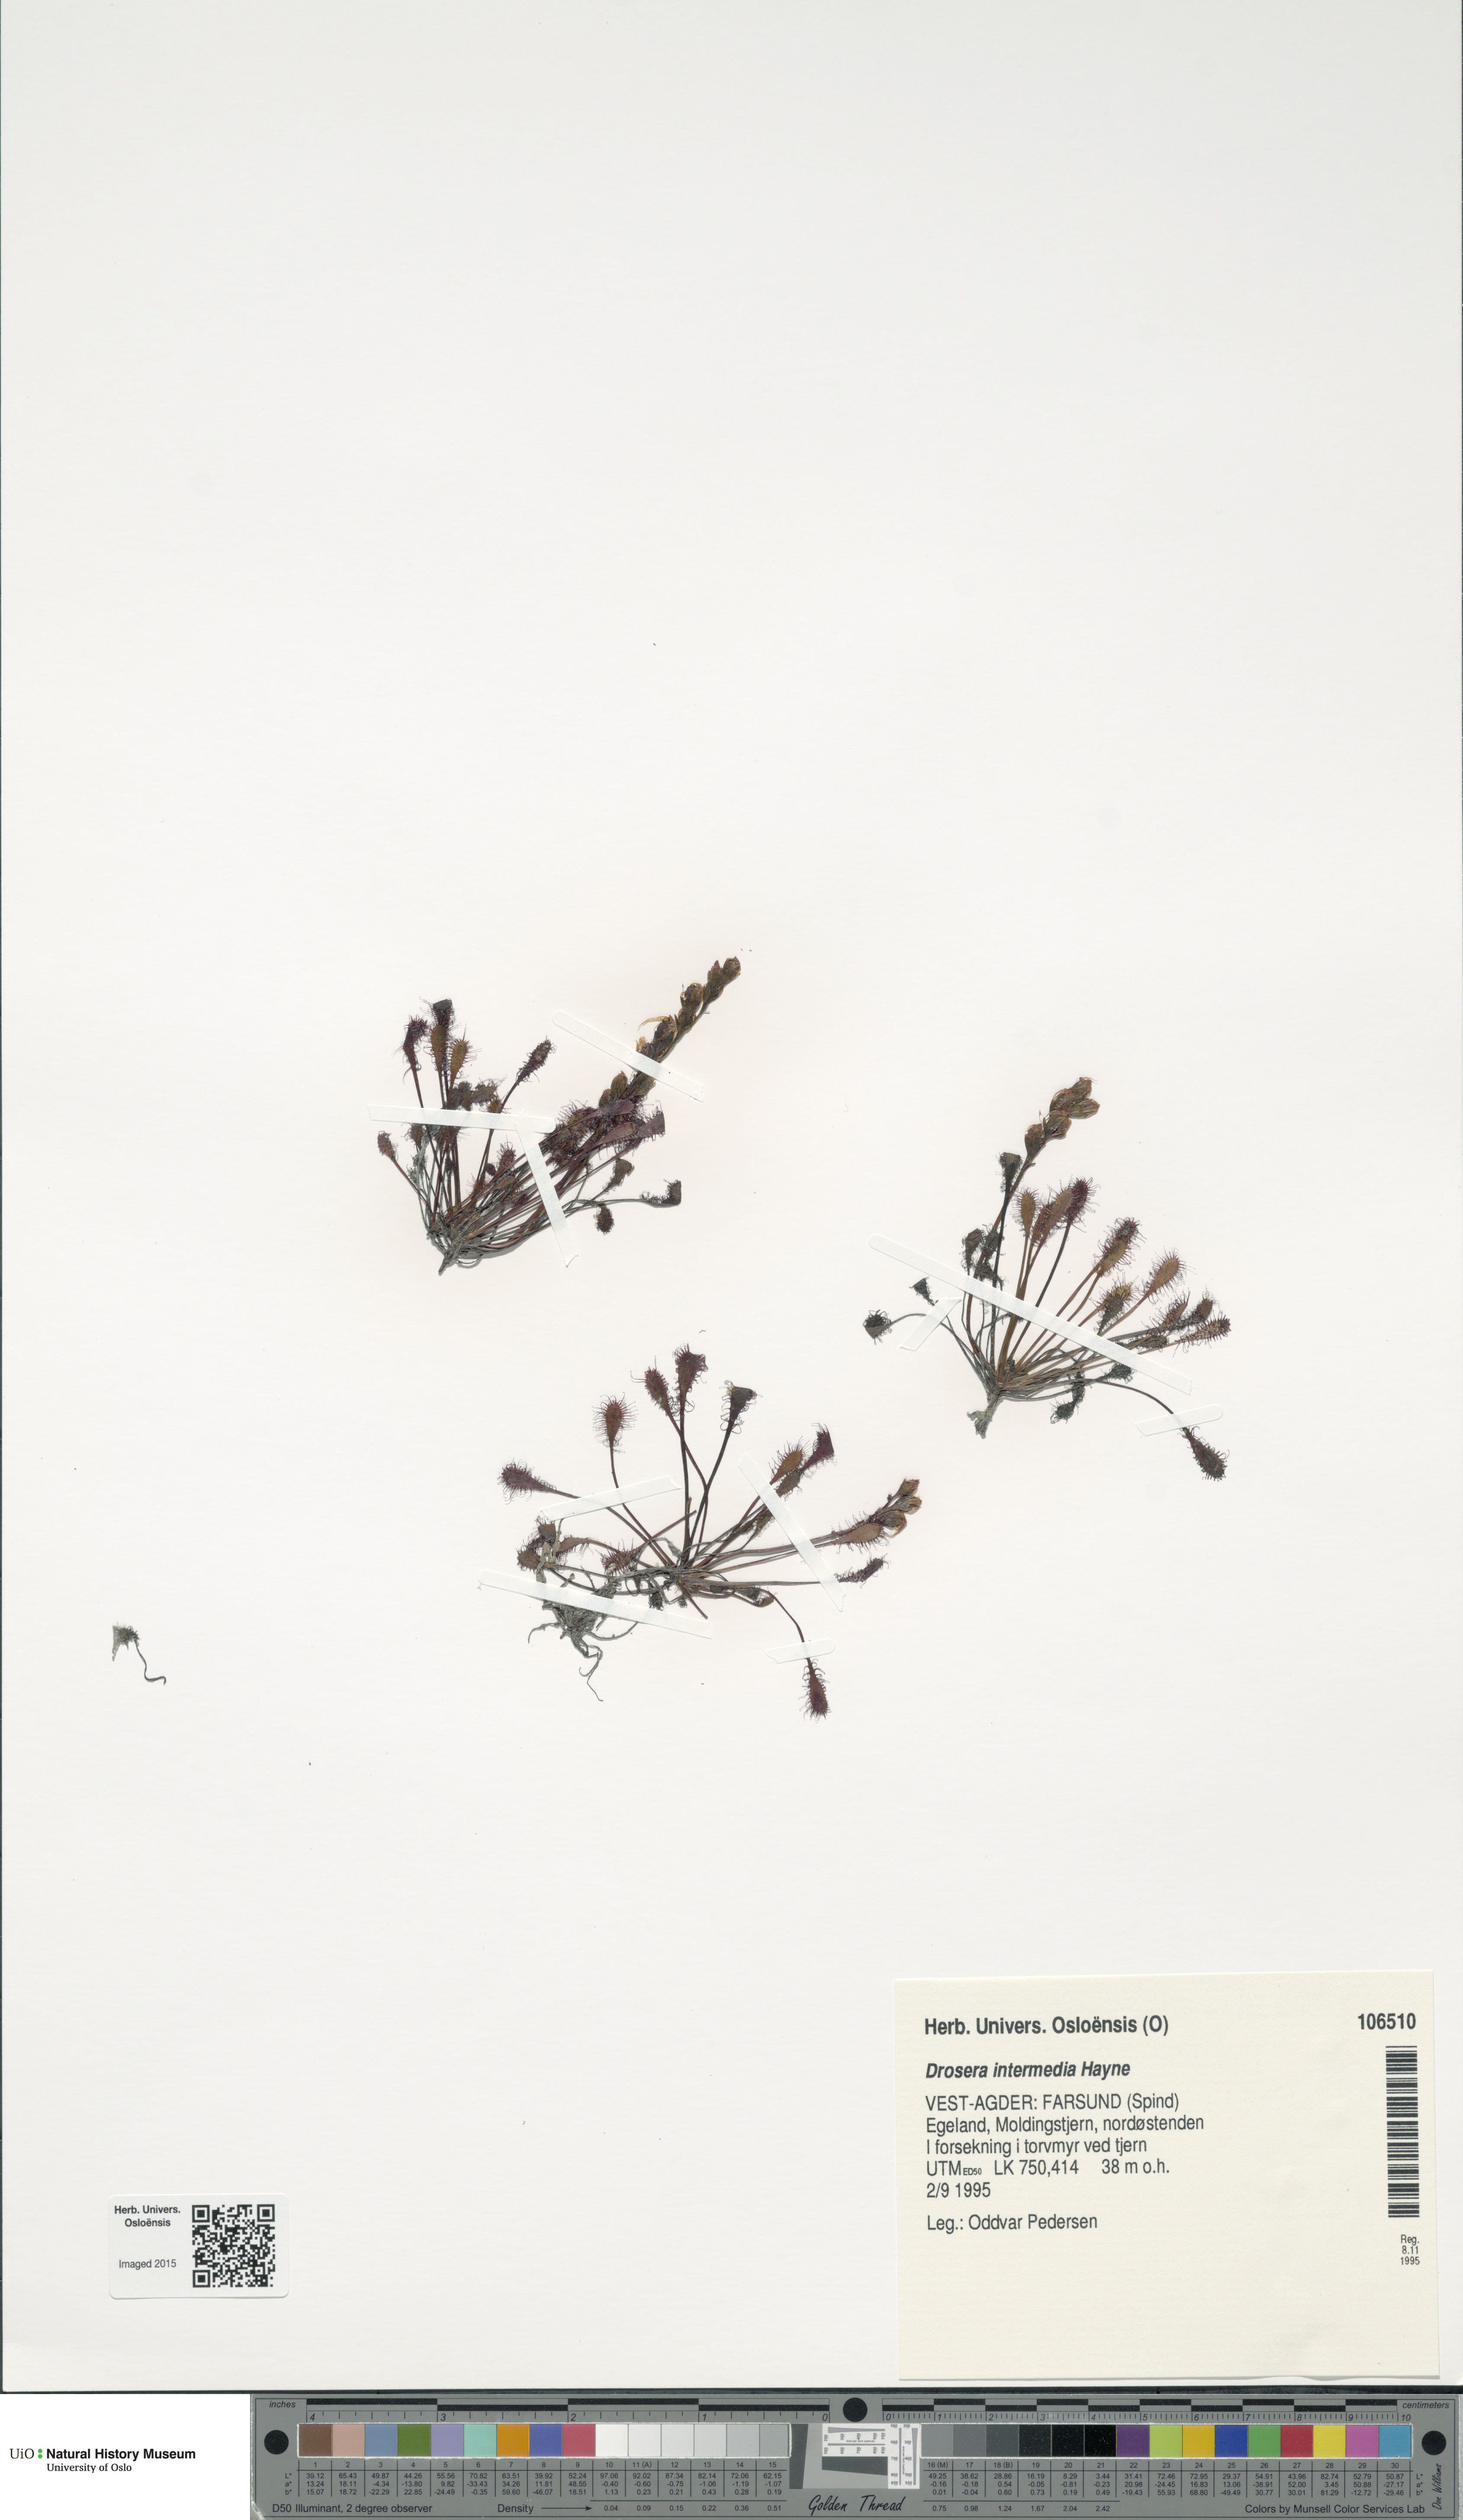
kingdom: Plantae
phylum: Tracheophyta
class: Magnoliopsida
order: Caryophyllales
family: Droseraceae
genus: Drosera
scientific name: Drosera intermedia
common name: Oblong-leaved sundew
